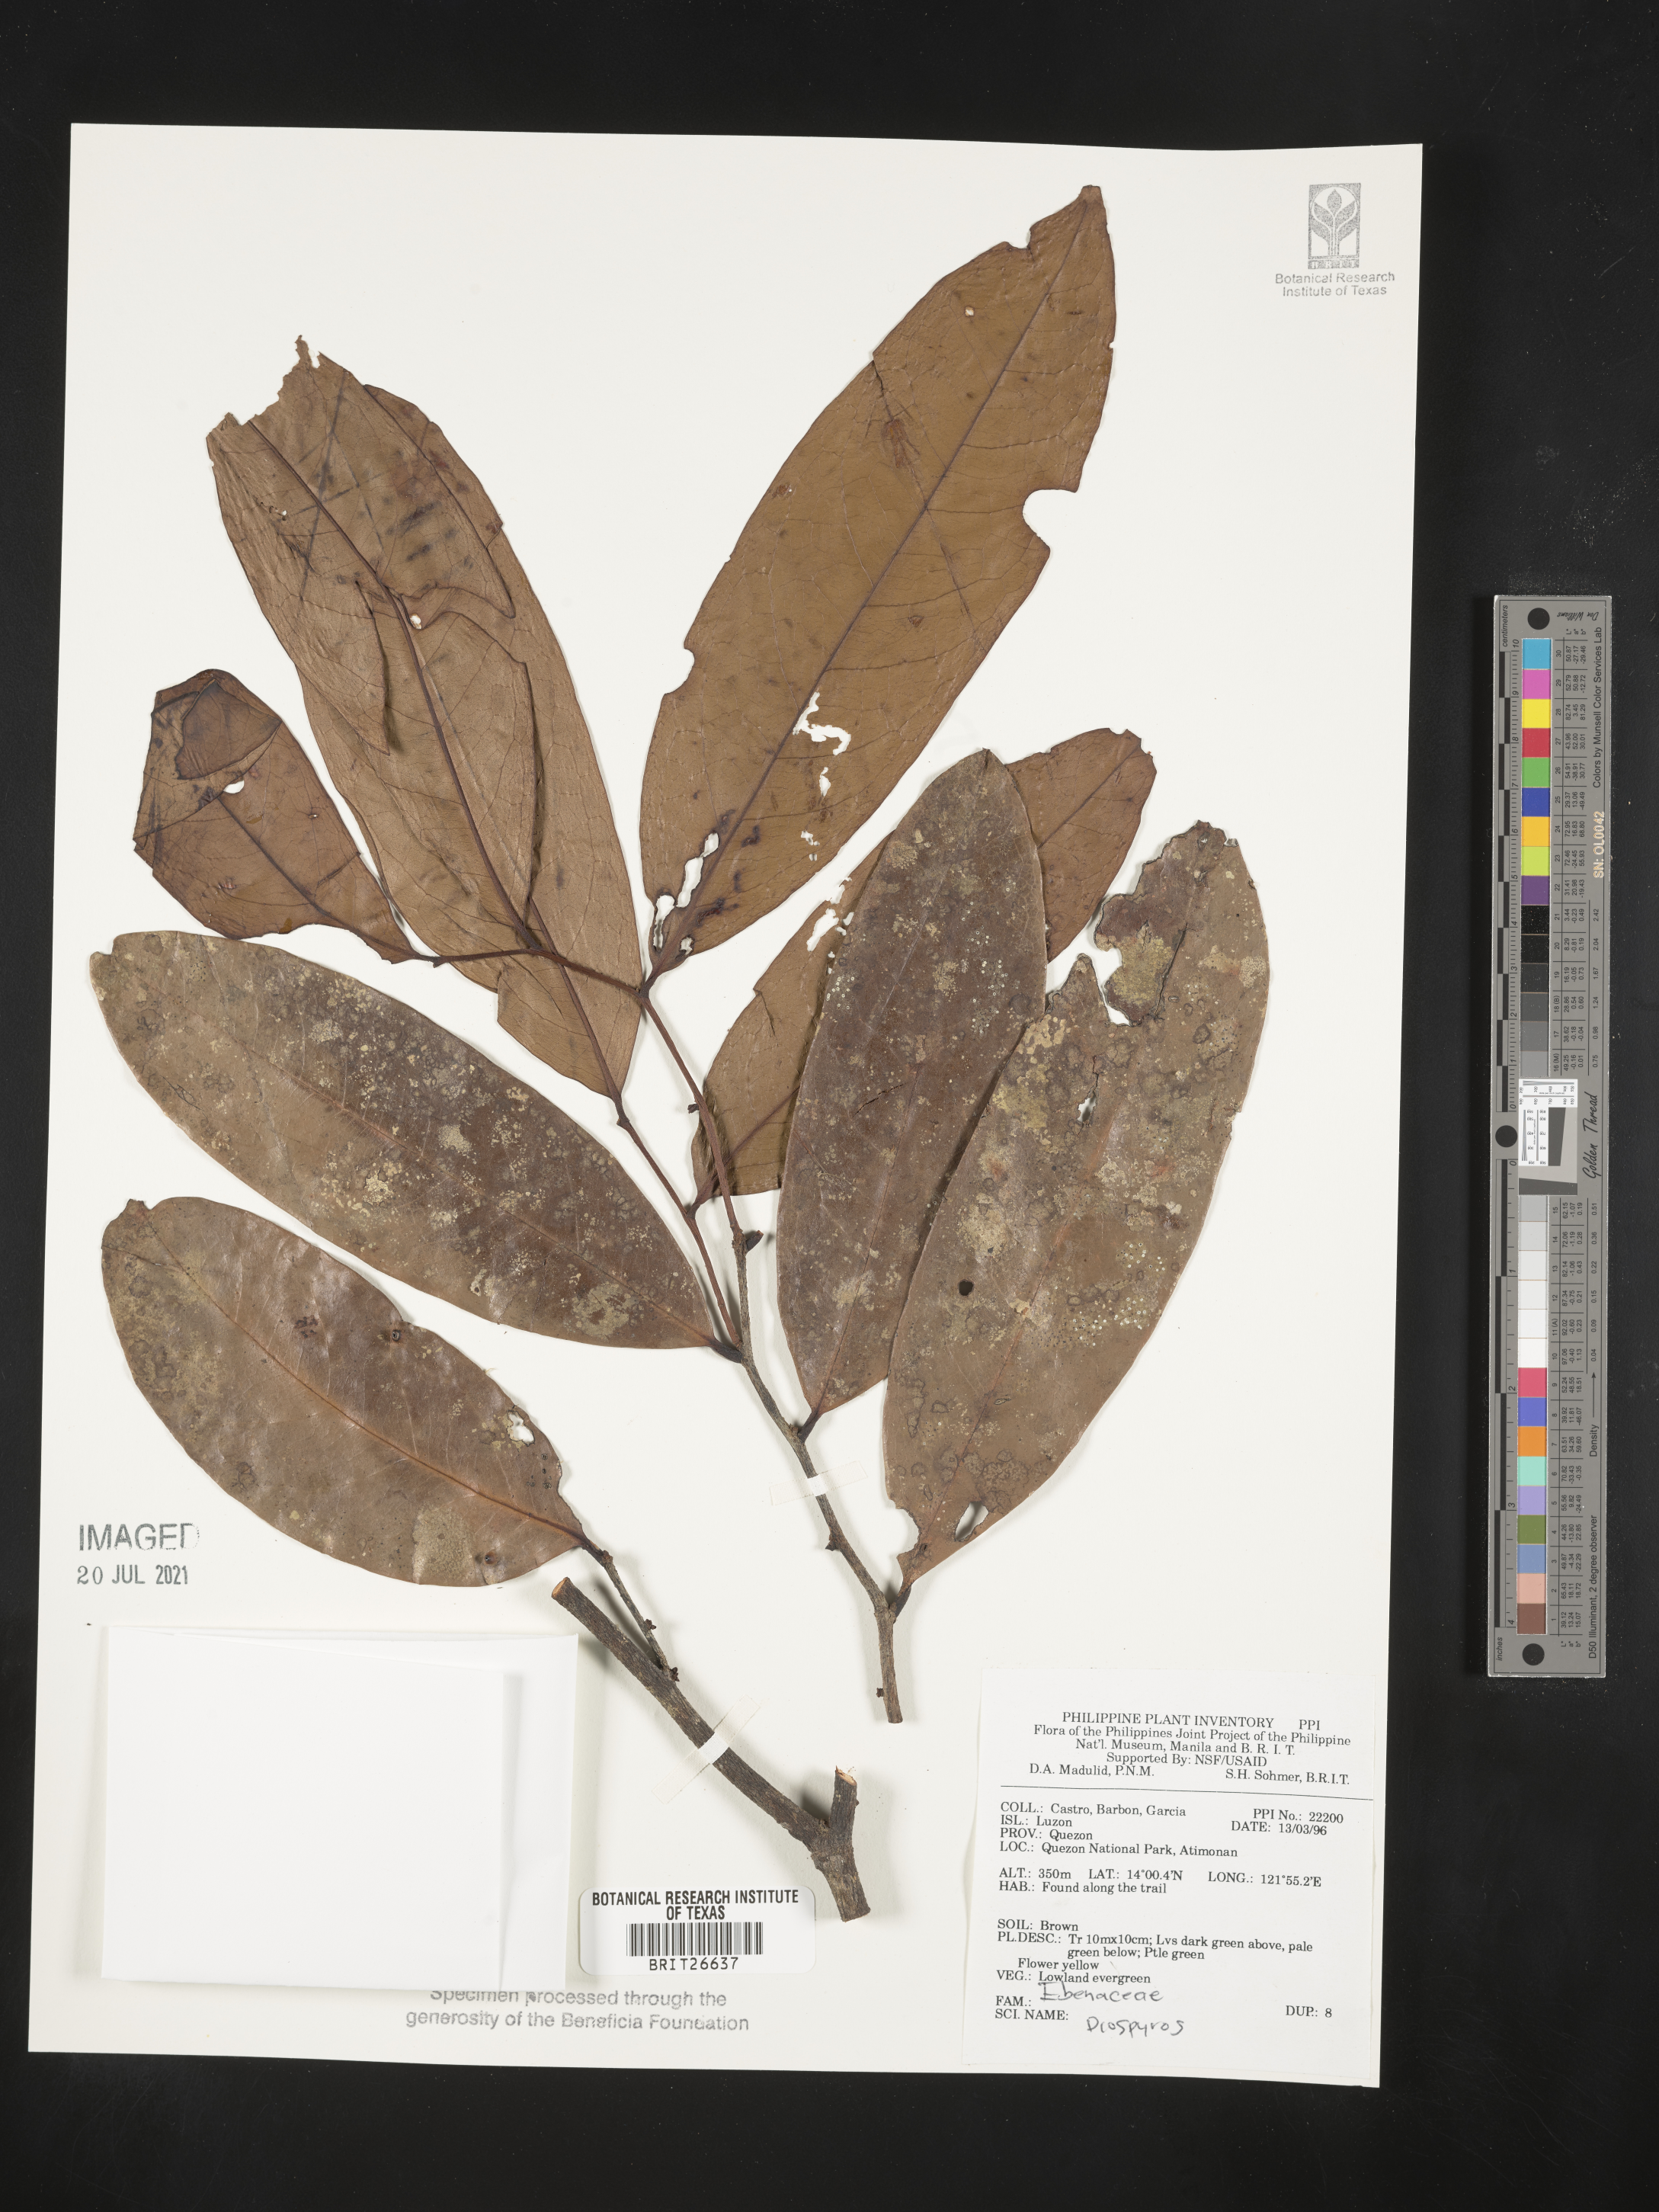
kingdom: Plantae
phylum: Tracheophyta
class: Magnoliopsida
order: Ericales
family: Ebenaceae
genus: Diospyros
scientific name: Diospyros
